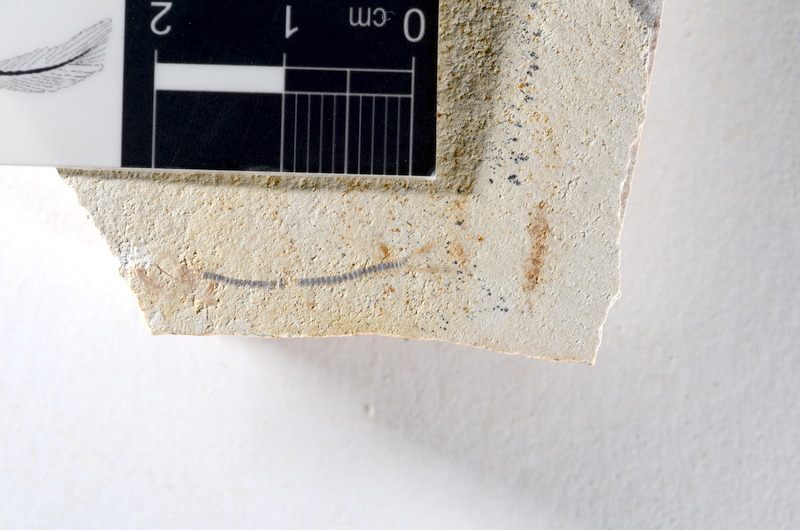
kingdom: Animalia
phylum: Chordata
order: Salmoniformes
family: Orthogonikleithridae
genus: Orthogonikleithrus
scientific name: Orthogonikleithrus hoelli
